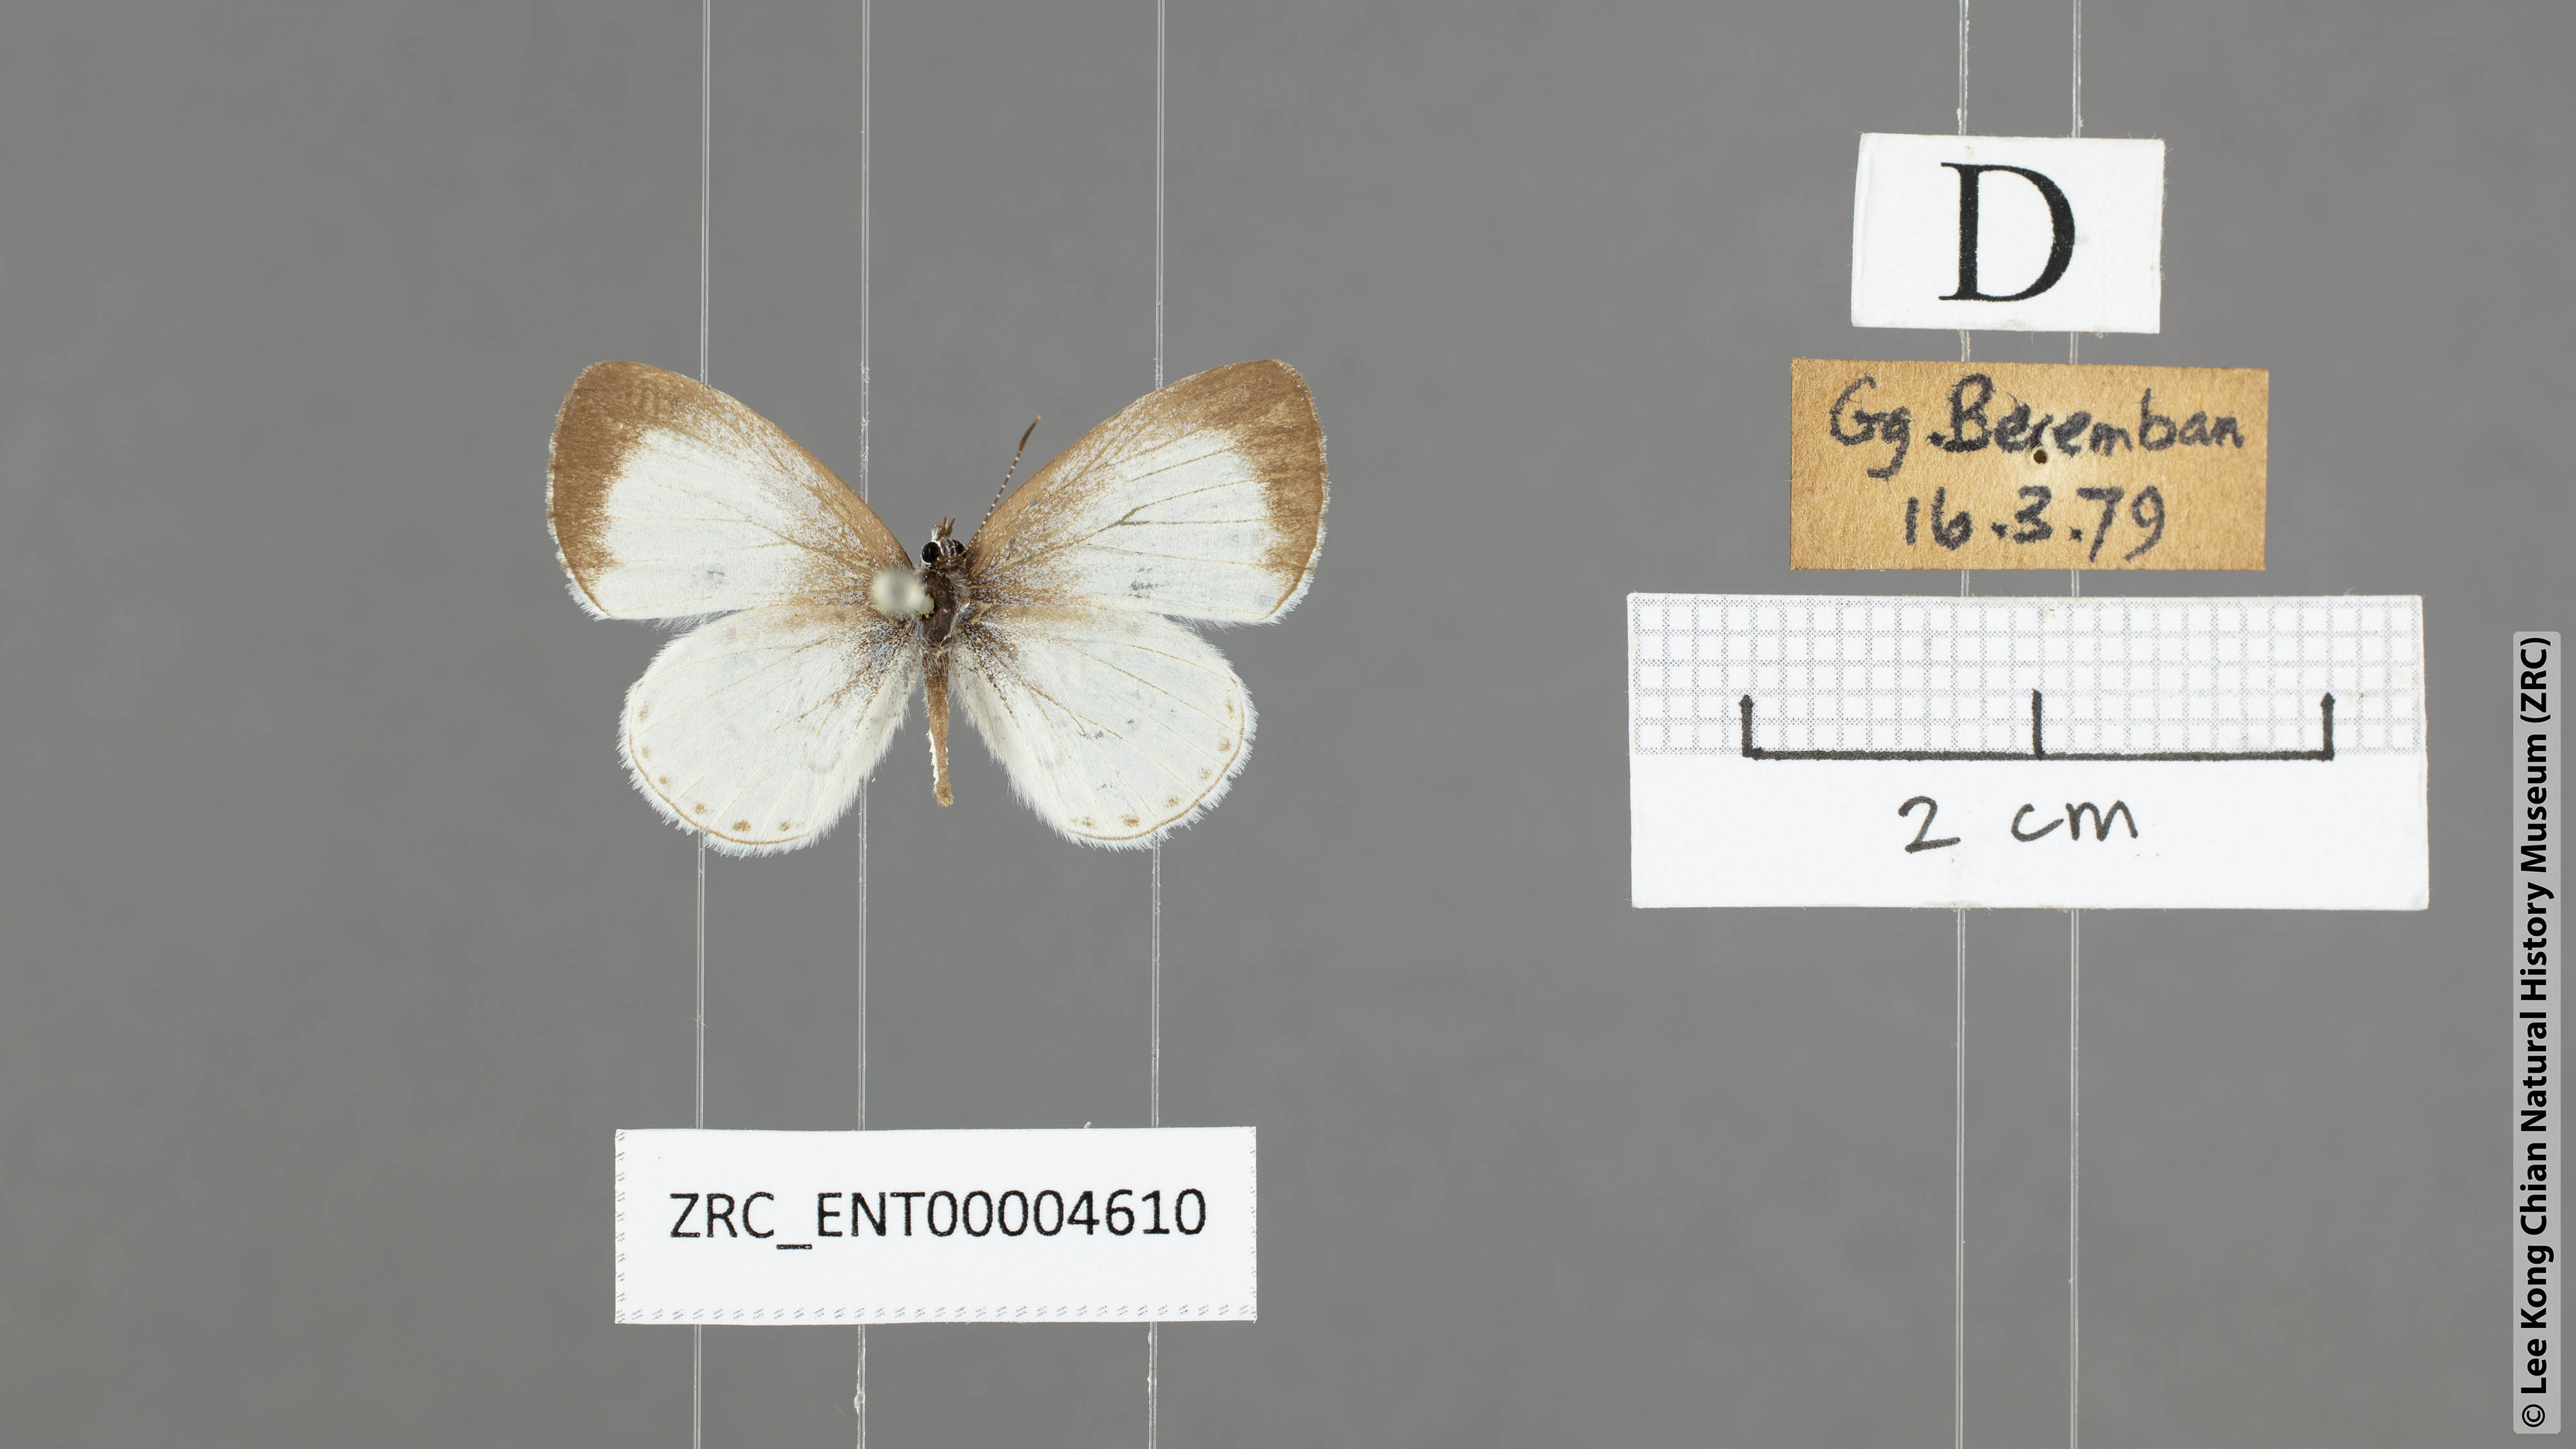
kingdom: Animalia
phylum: Arthropoda
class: Insecta
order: Lepidoptera
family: Lycaenidae
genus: Udara
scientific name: Udara akasa
